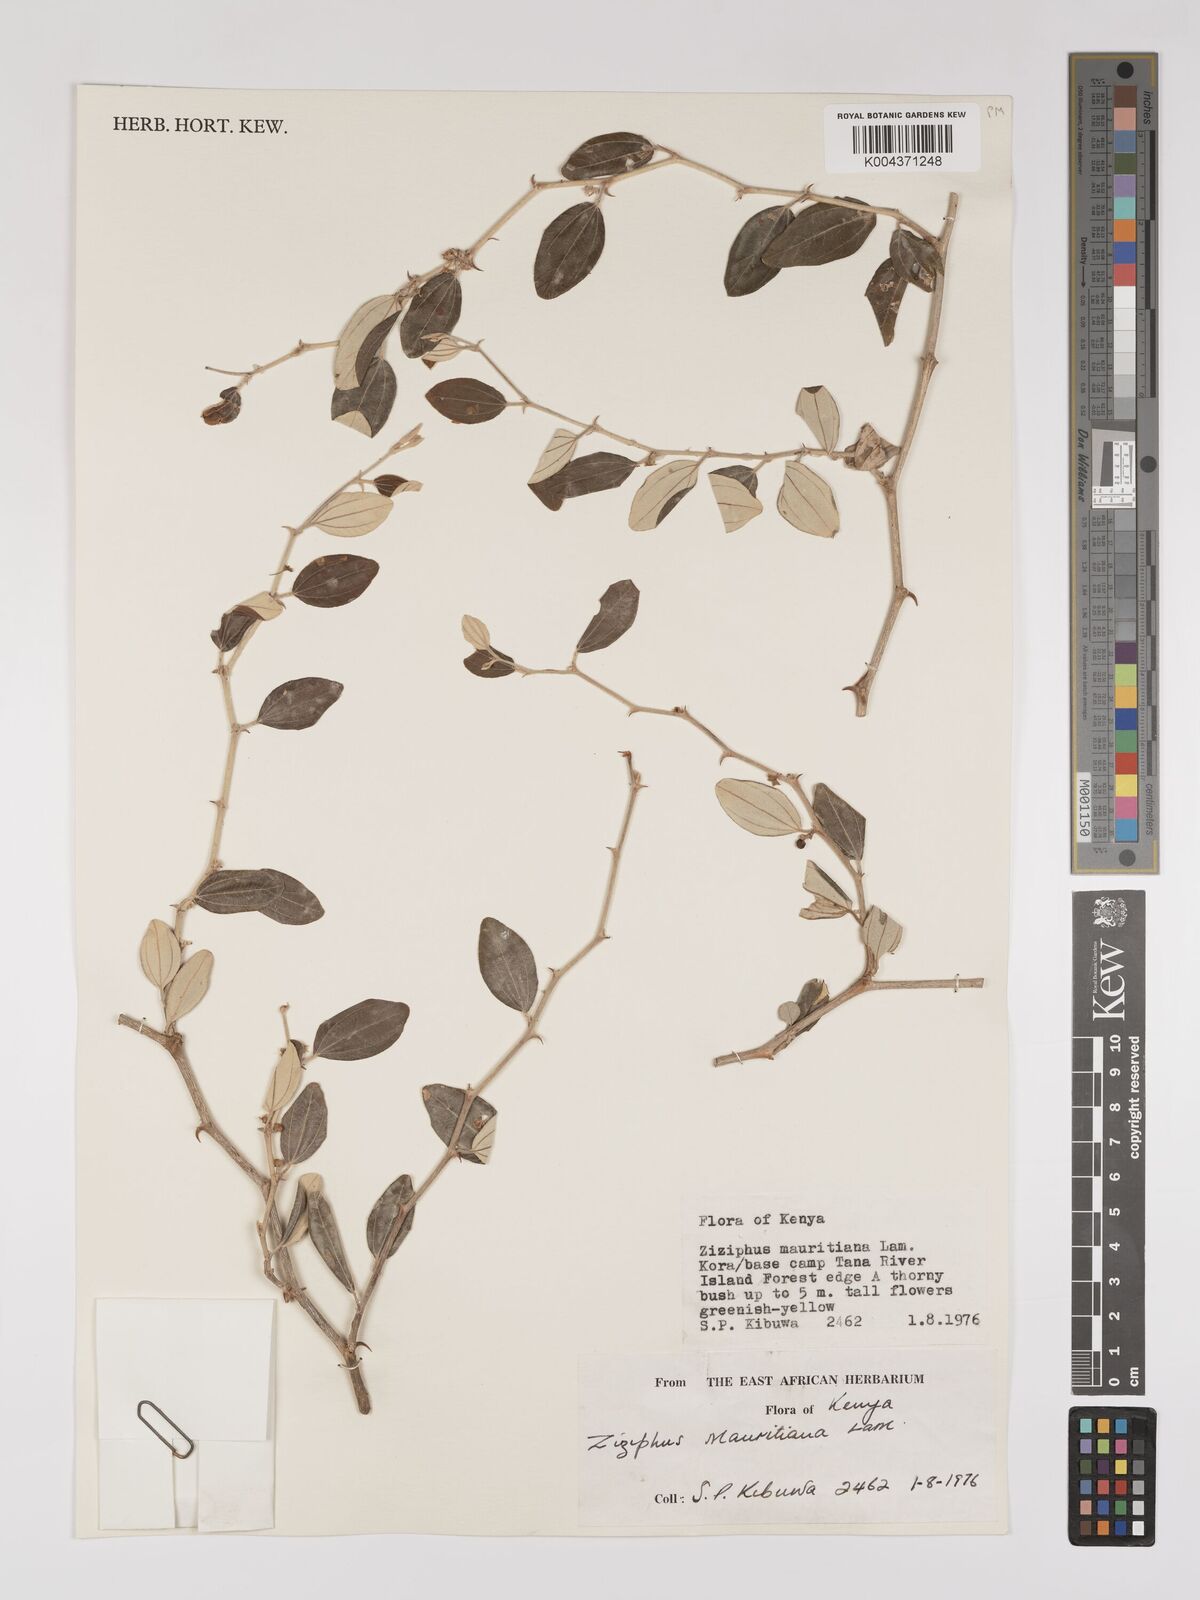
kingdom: Plantae
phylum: Tracheophyta
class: Magnoliopsida
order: Rosales
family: Rhamnaceae
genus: Ziziphus
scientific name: Ziziphus mauritiana
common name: Indian jujube
